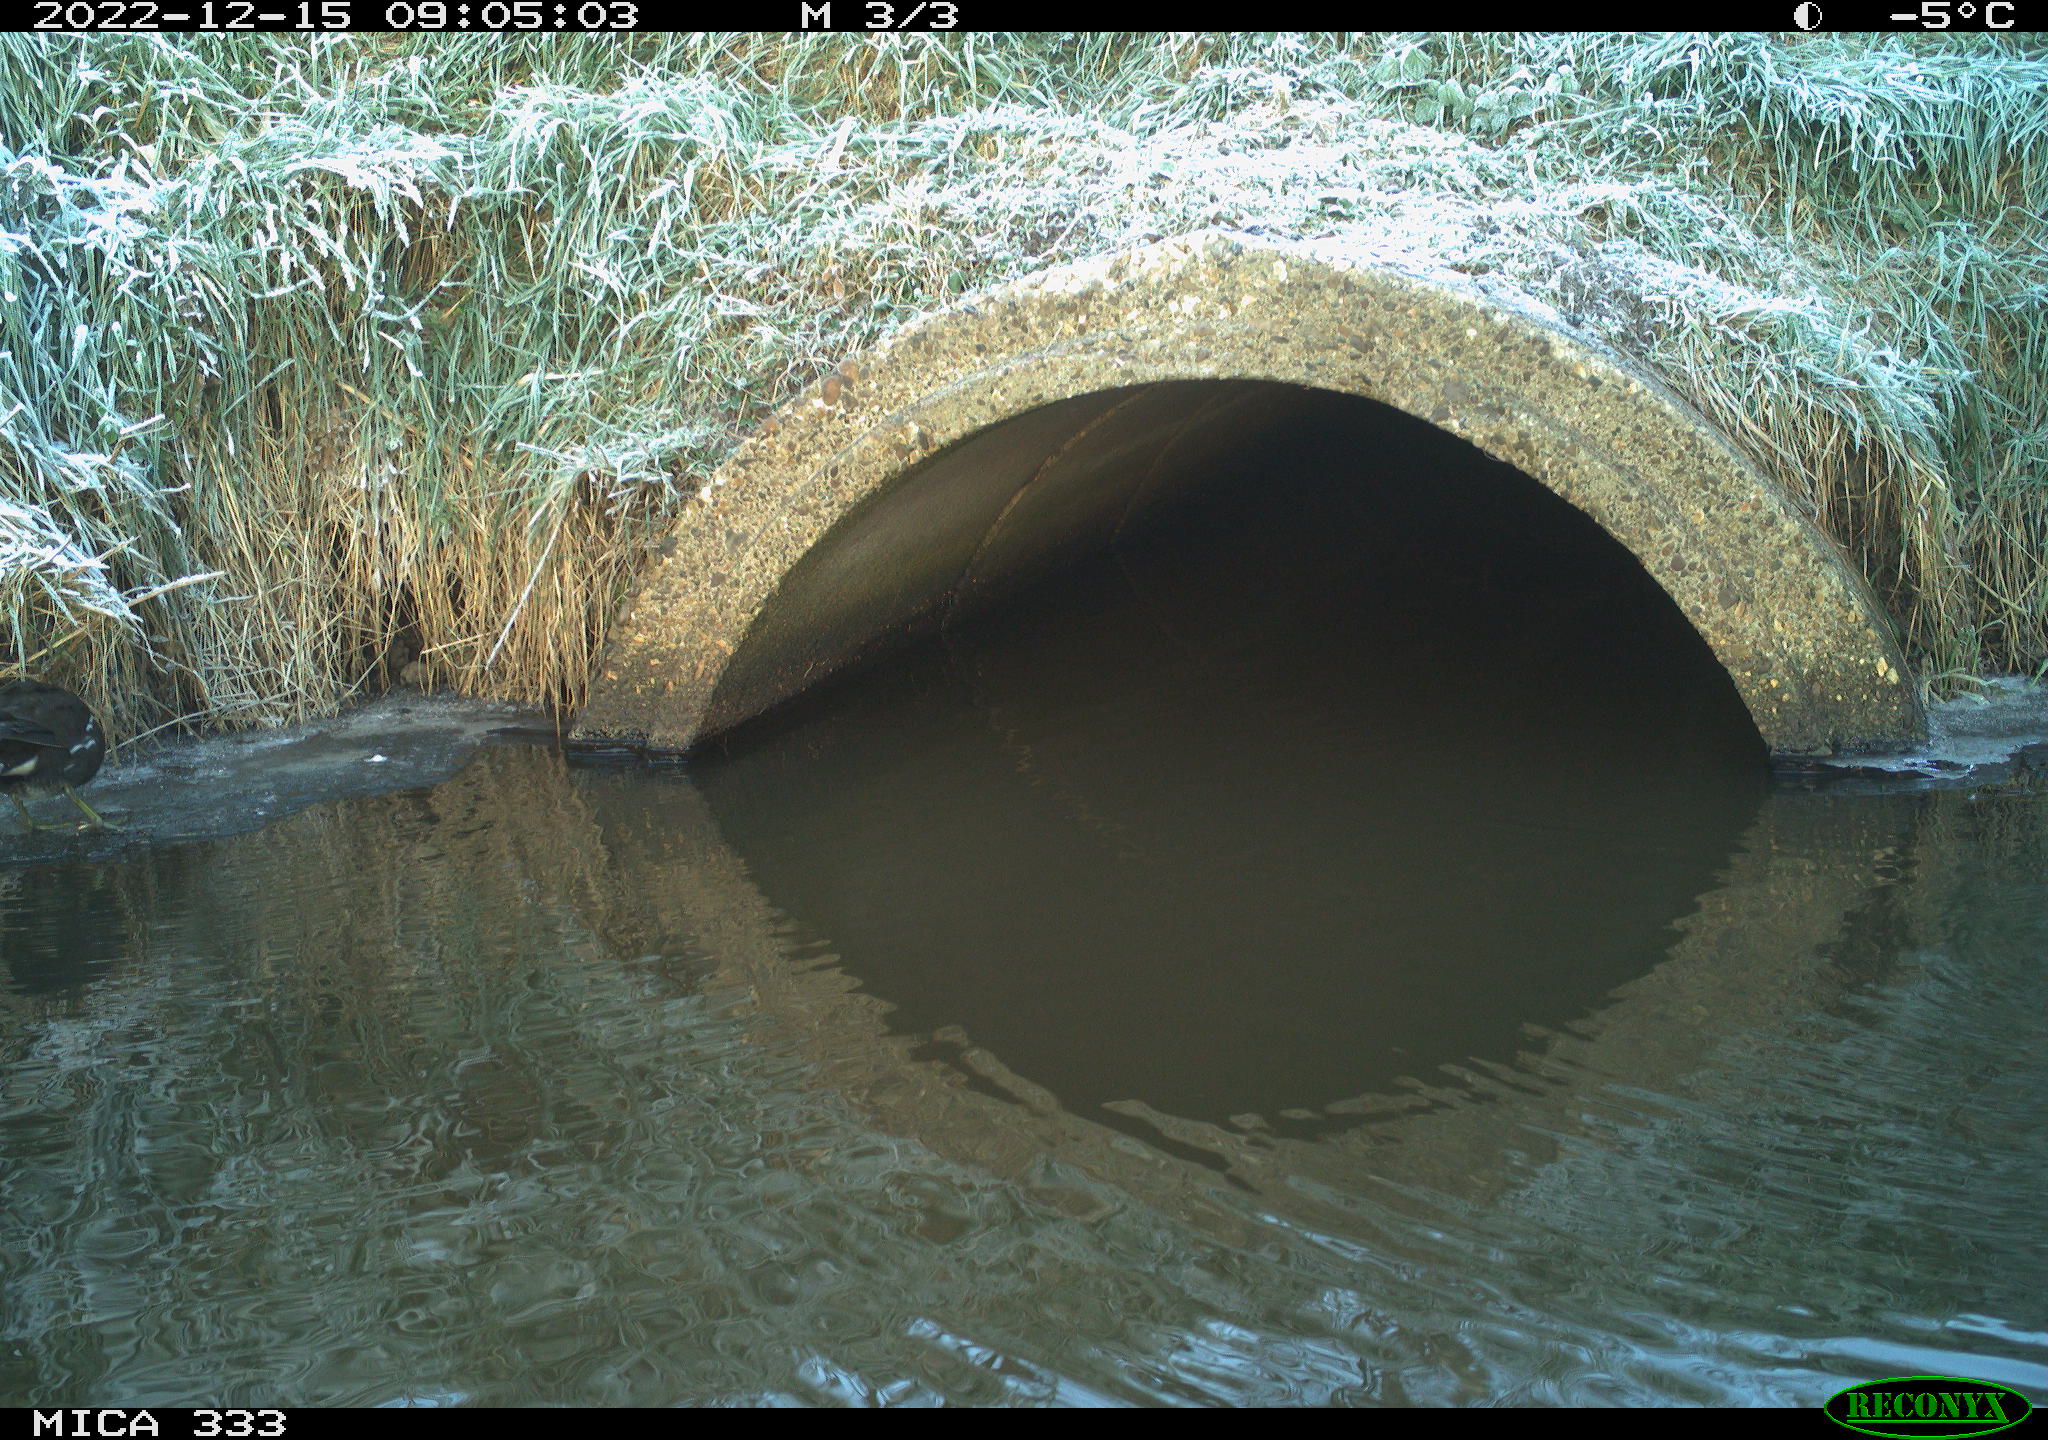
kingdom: Animalia
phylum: Chordata
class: Aves
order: Gruiformes
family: Rallidae
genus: Gallinula
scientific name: Gallinula chloropus
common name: Common moorhen
